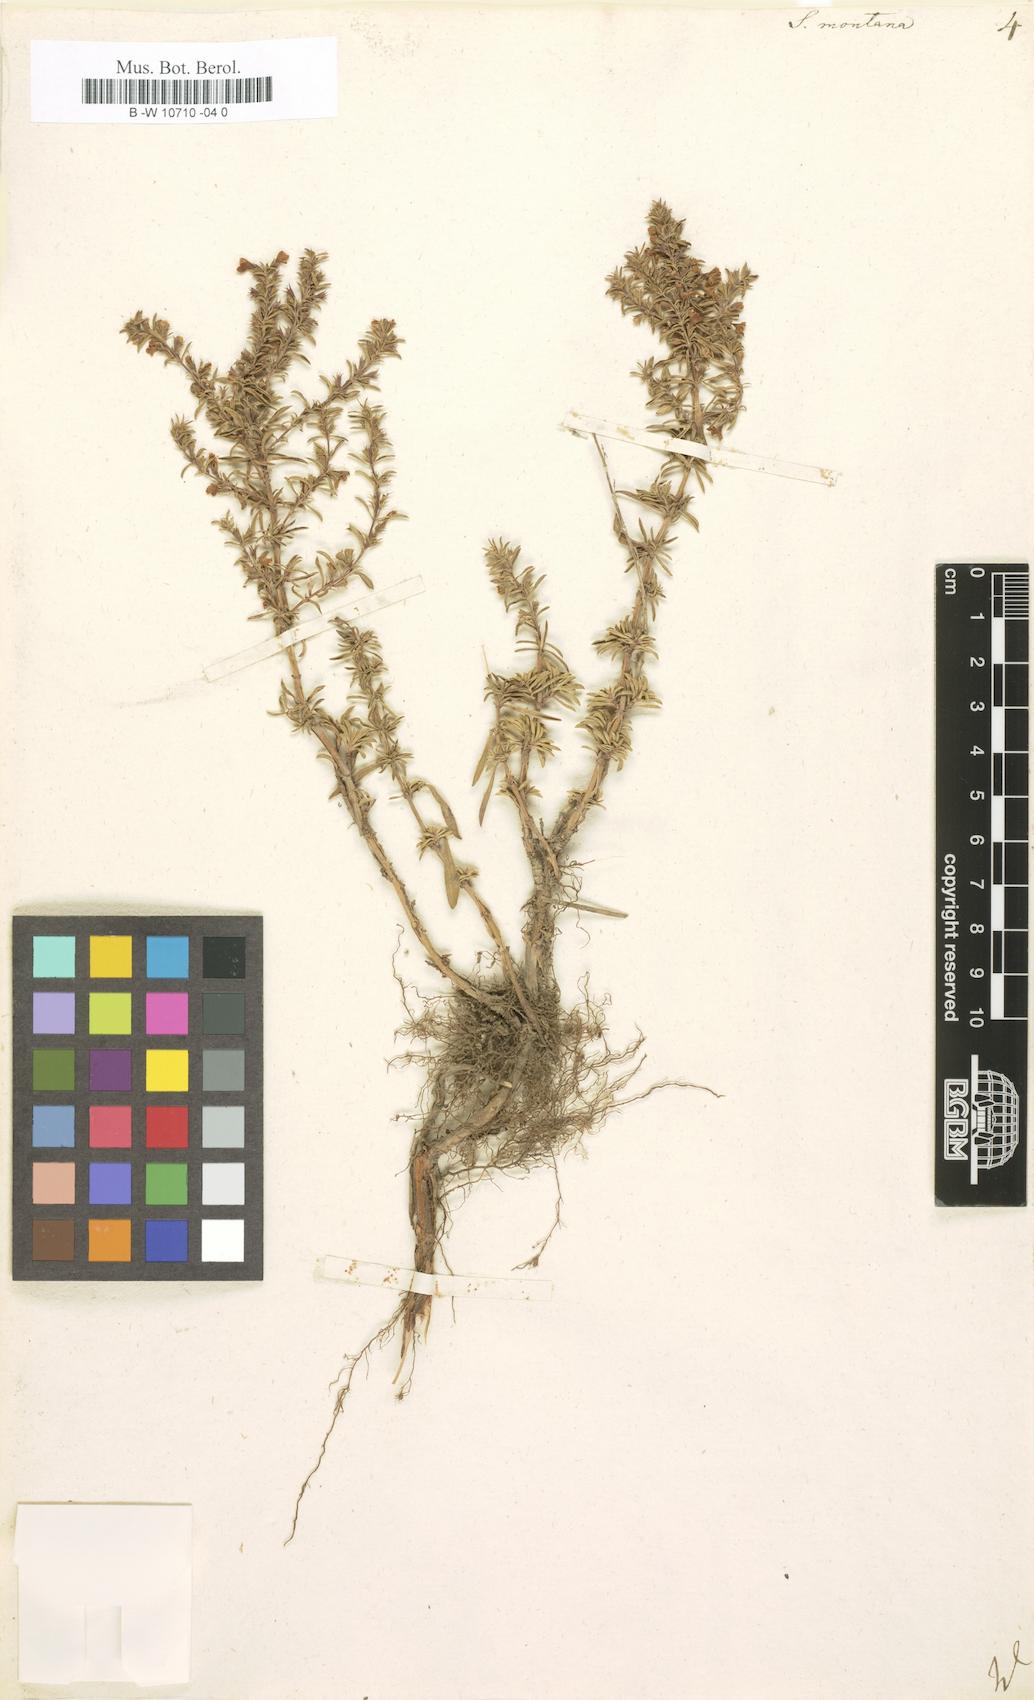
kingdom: Plantae
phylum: Tracheophyta
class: Magnoliopsida
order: Lamiales
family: Lamiaceae
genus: Satureja
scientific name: Satureja montana
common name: Winter savory
